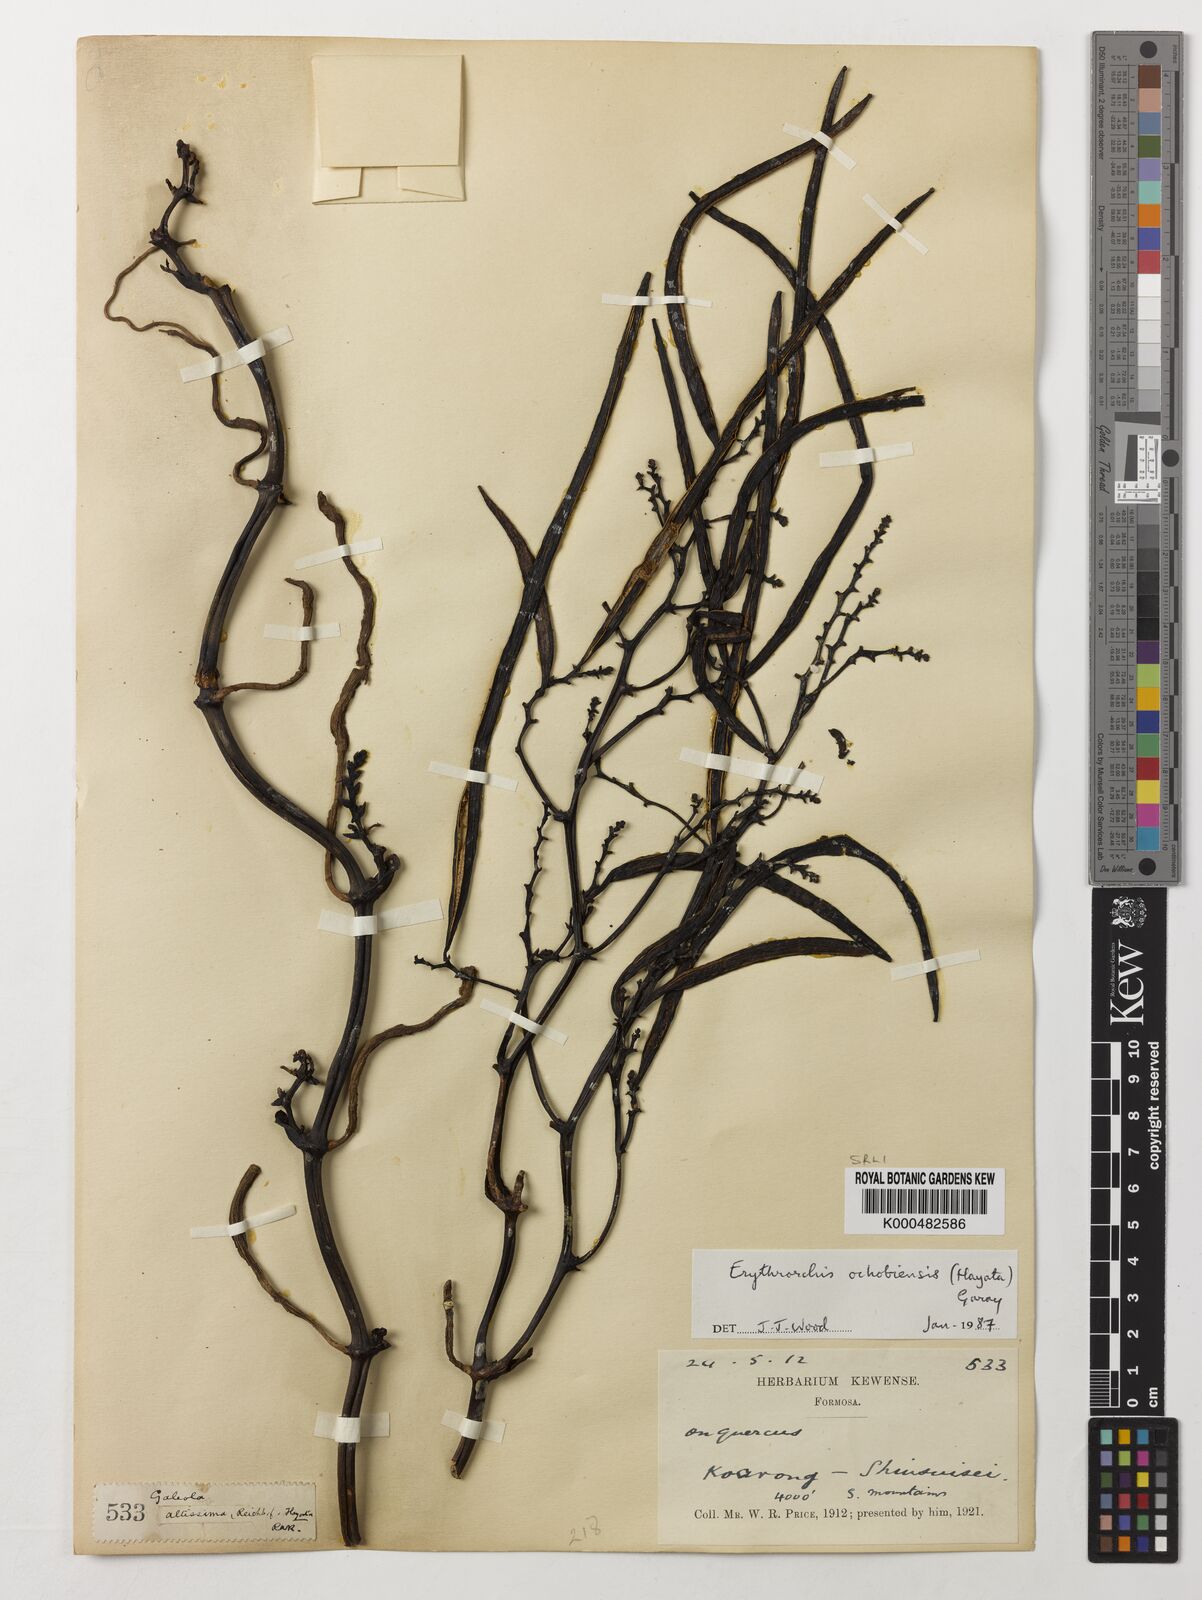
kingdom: Plantae
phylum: Tracheophyta
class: Liliopsida
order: Asparagales
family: Orchidaceae
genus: Erythrorchis
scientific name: Erythrorchis altissima
